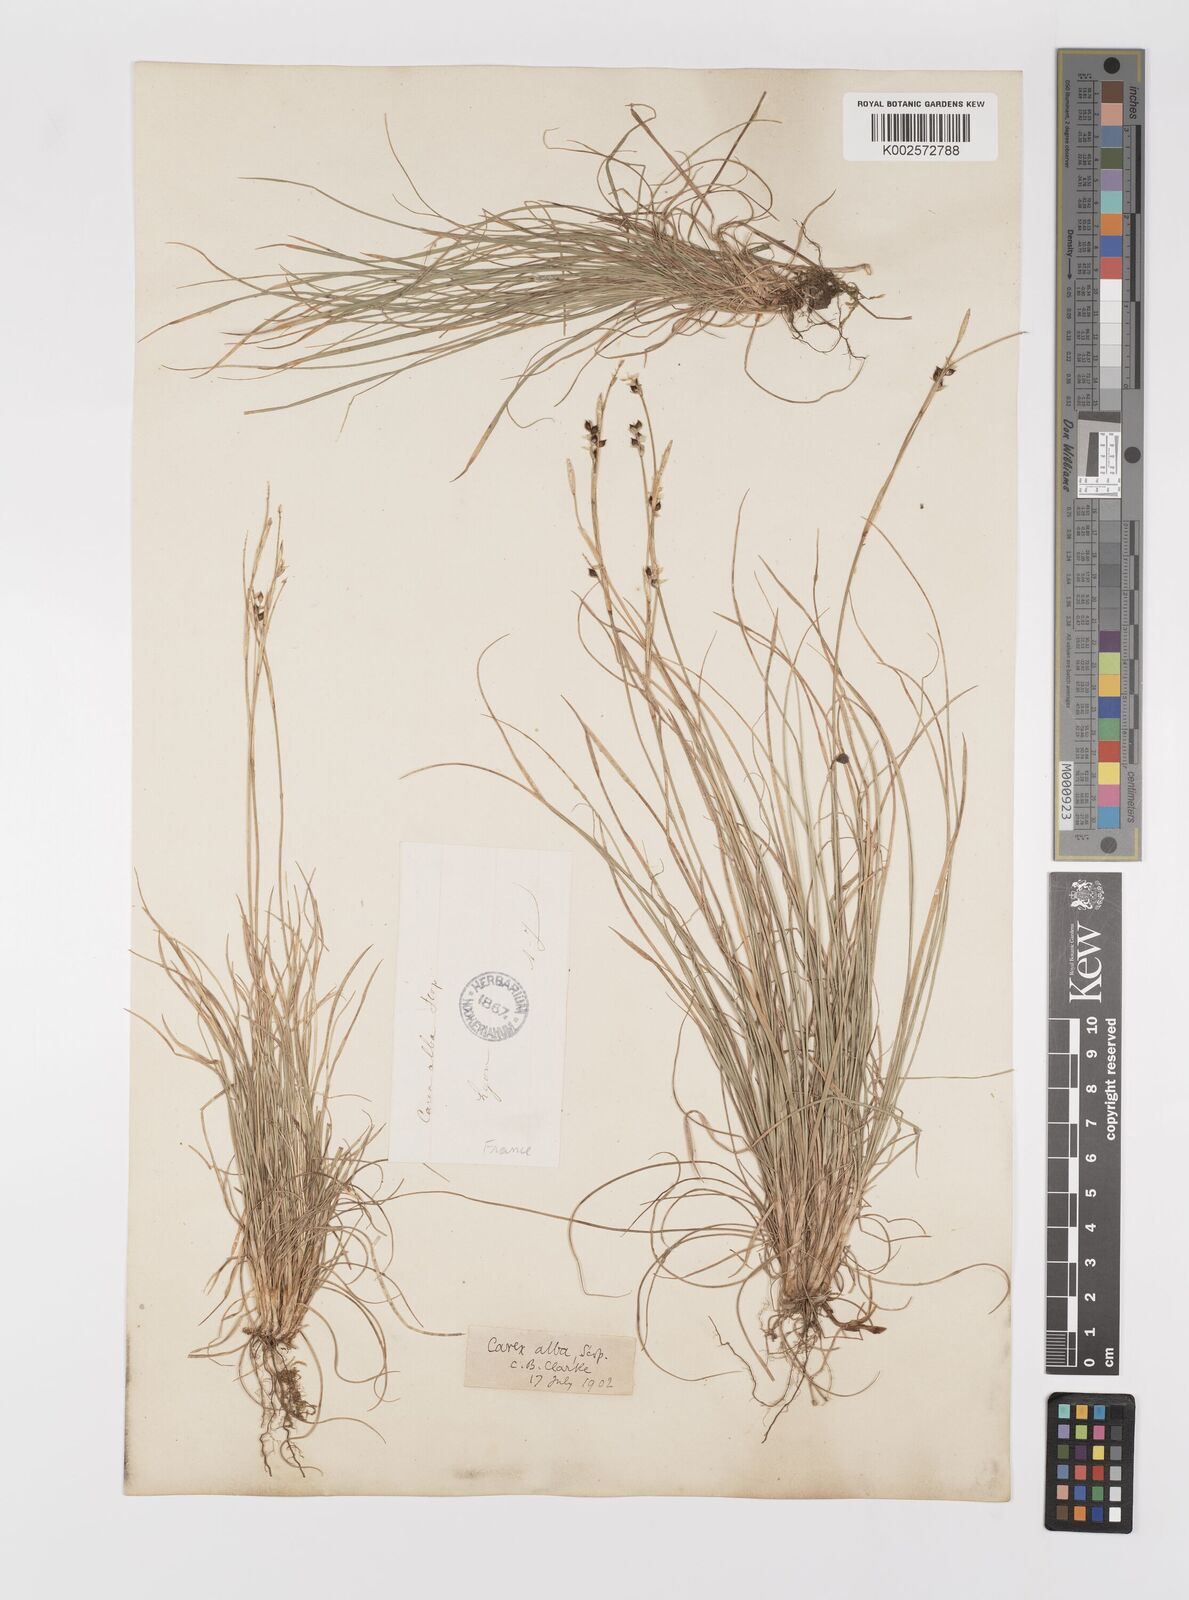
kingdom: Plantae
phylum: Tracheophyta
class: Liliopsida
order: Poales
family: Cyperaceae
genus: Carex
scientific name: Carex alba
